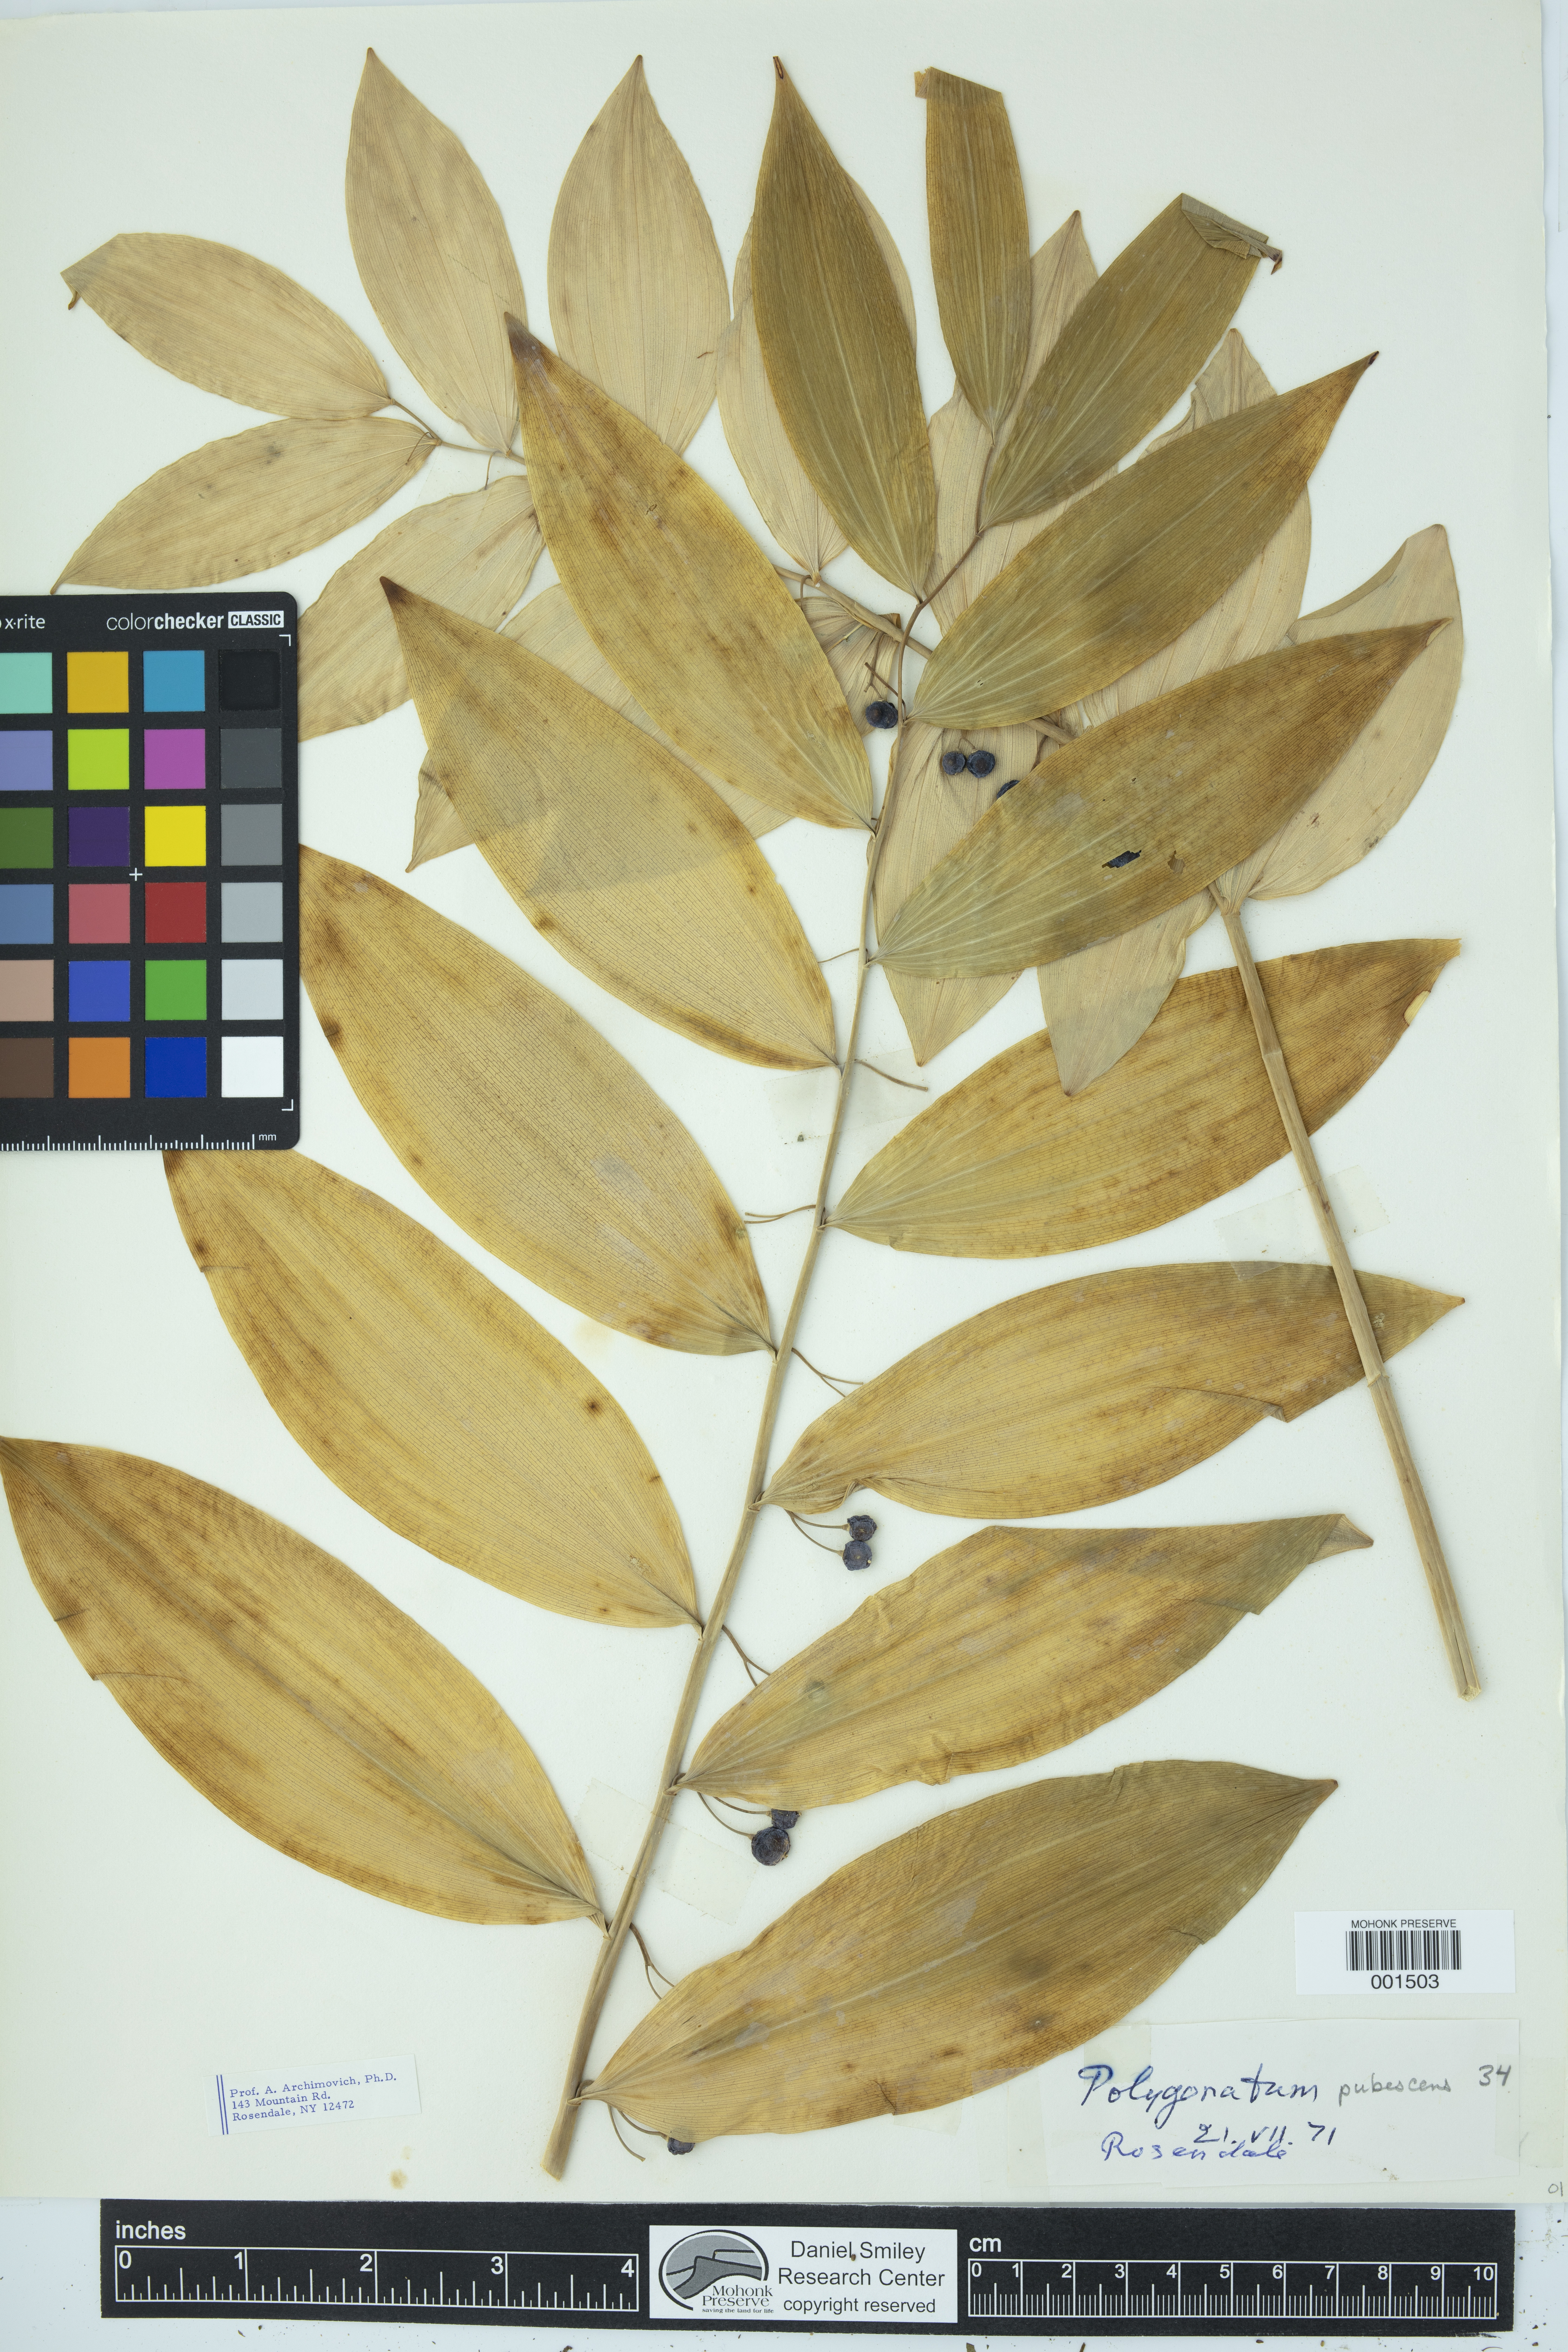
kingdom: Plantae
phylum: Tracheophyta
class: Liliopsida
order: Asparagales
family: Asparagaceae
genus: Polygonatum
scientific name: Polygonatum pubescens
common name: Downy solomon's seal
